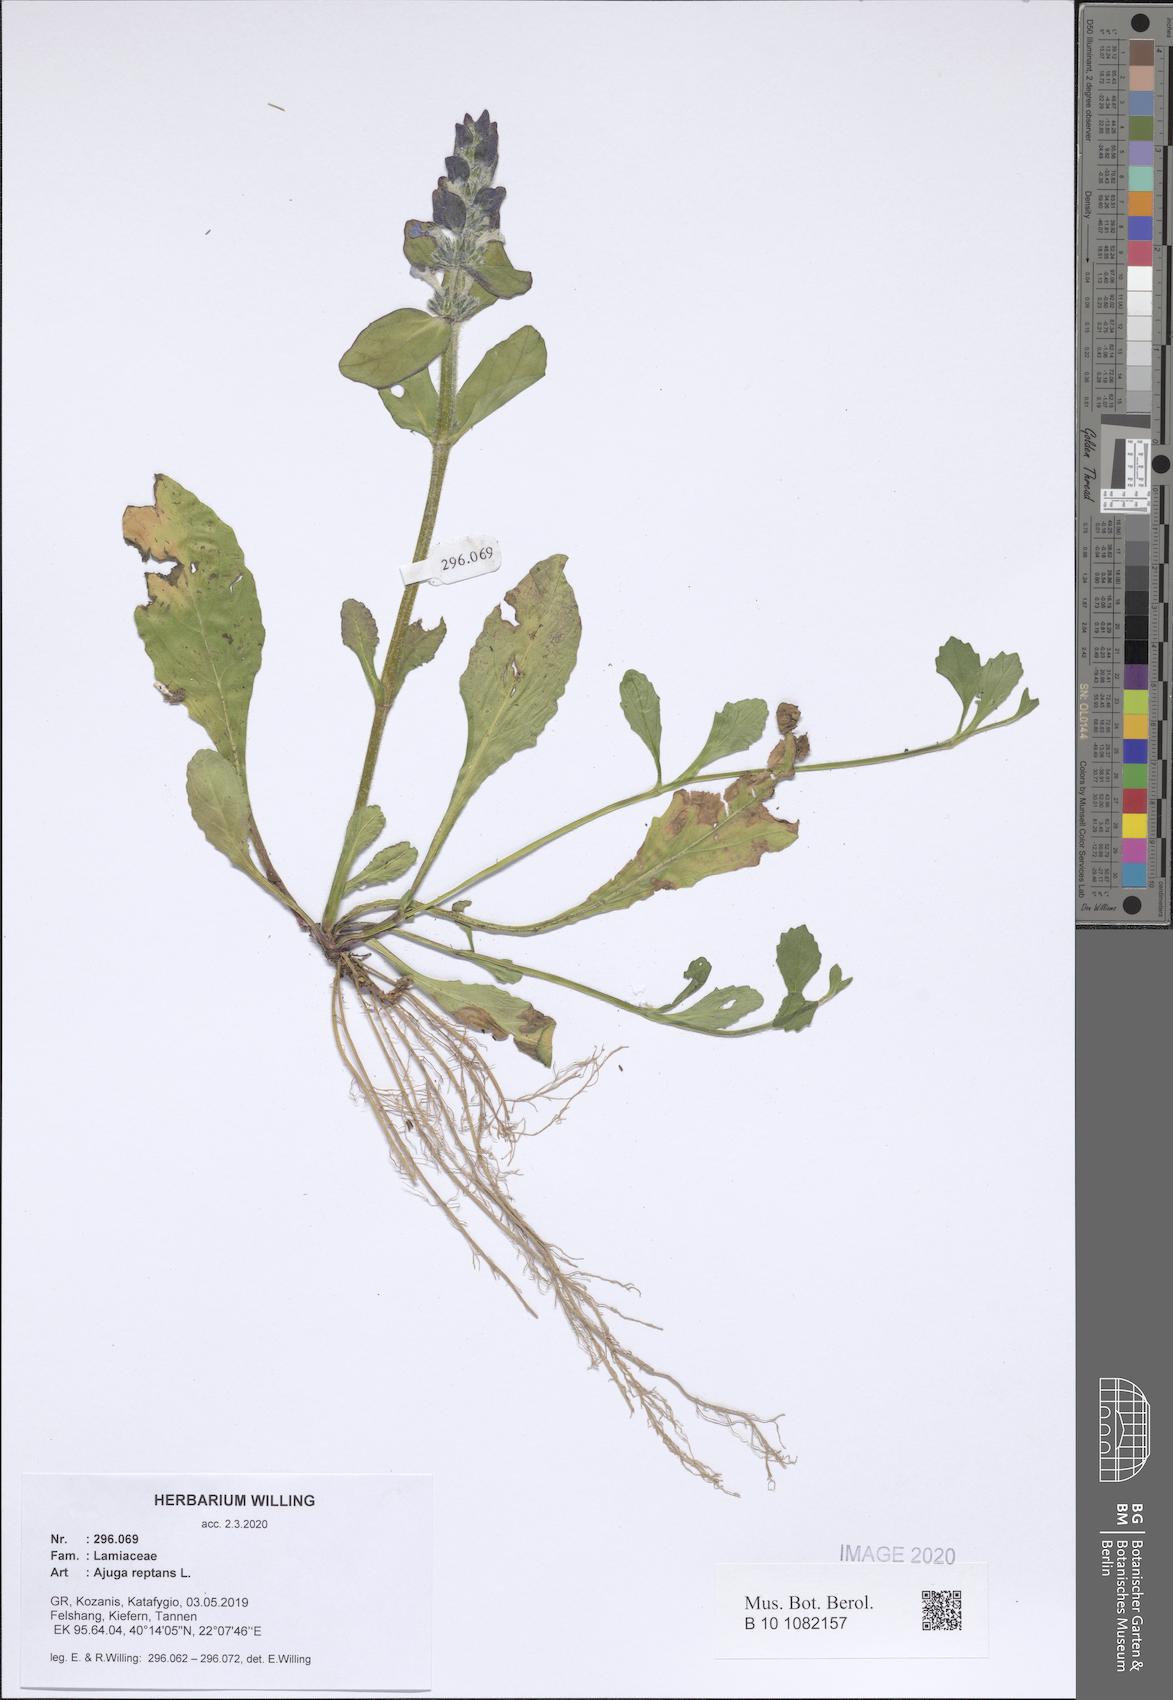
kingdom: Plantae
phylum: Tracheophyta
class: Magnoliopsida
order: Lamiales
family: Lamiaceae
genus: Ajuga
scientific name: Ajuga reptans
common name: Bugle
